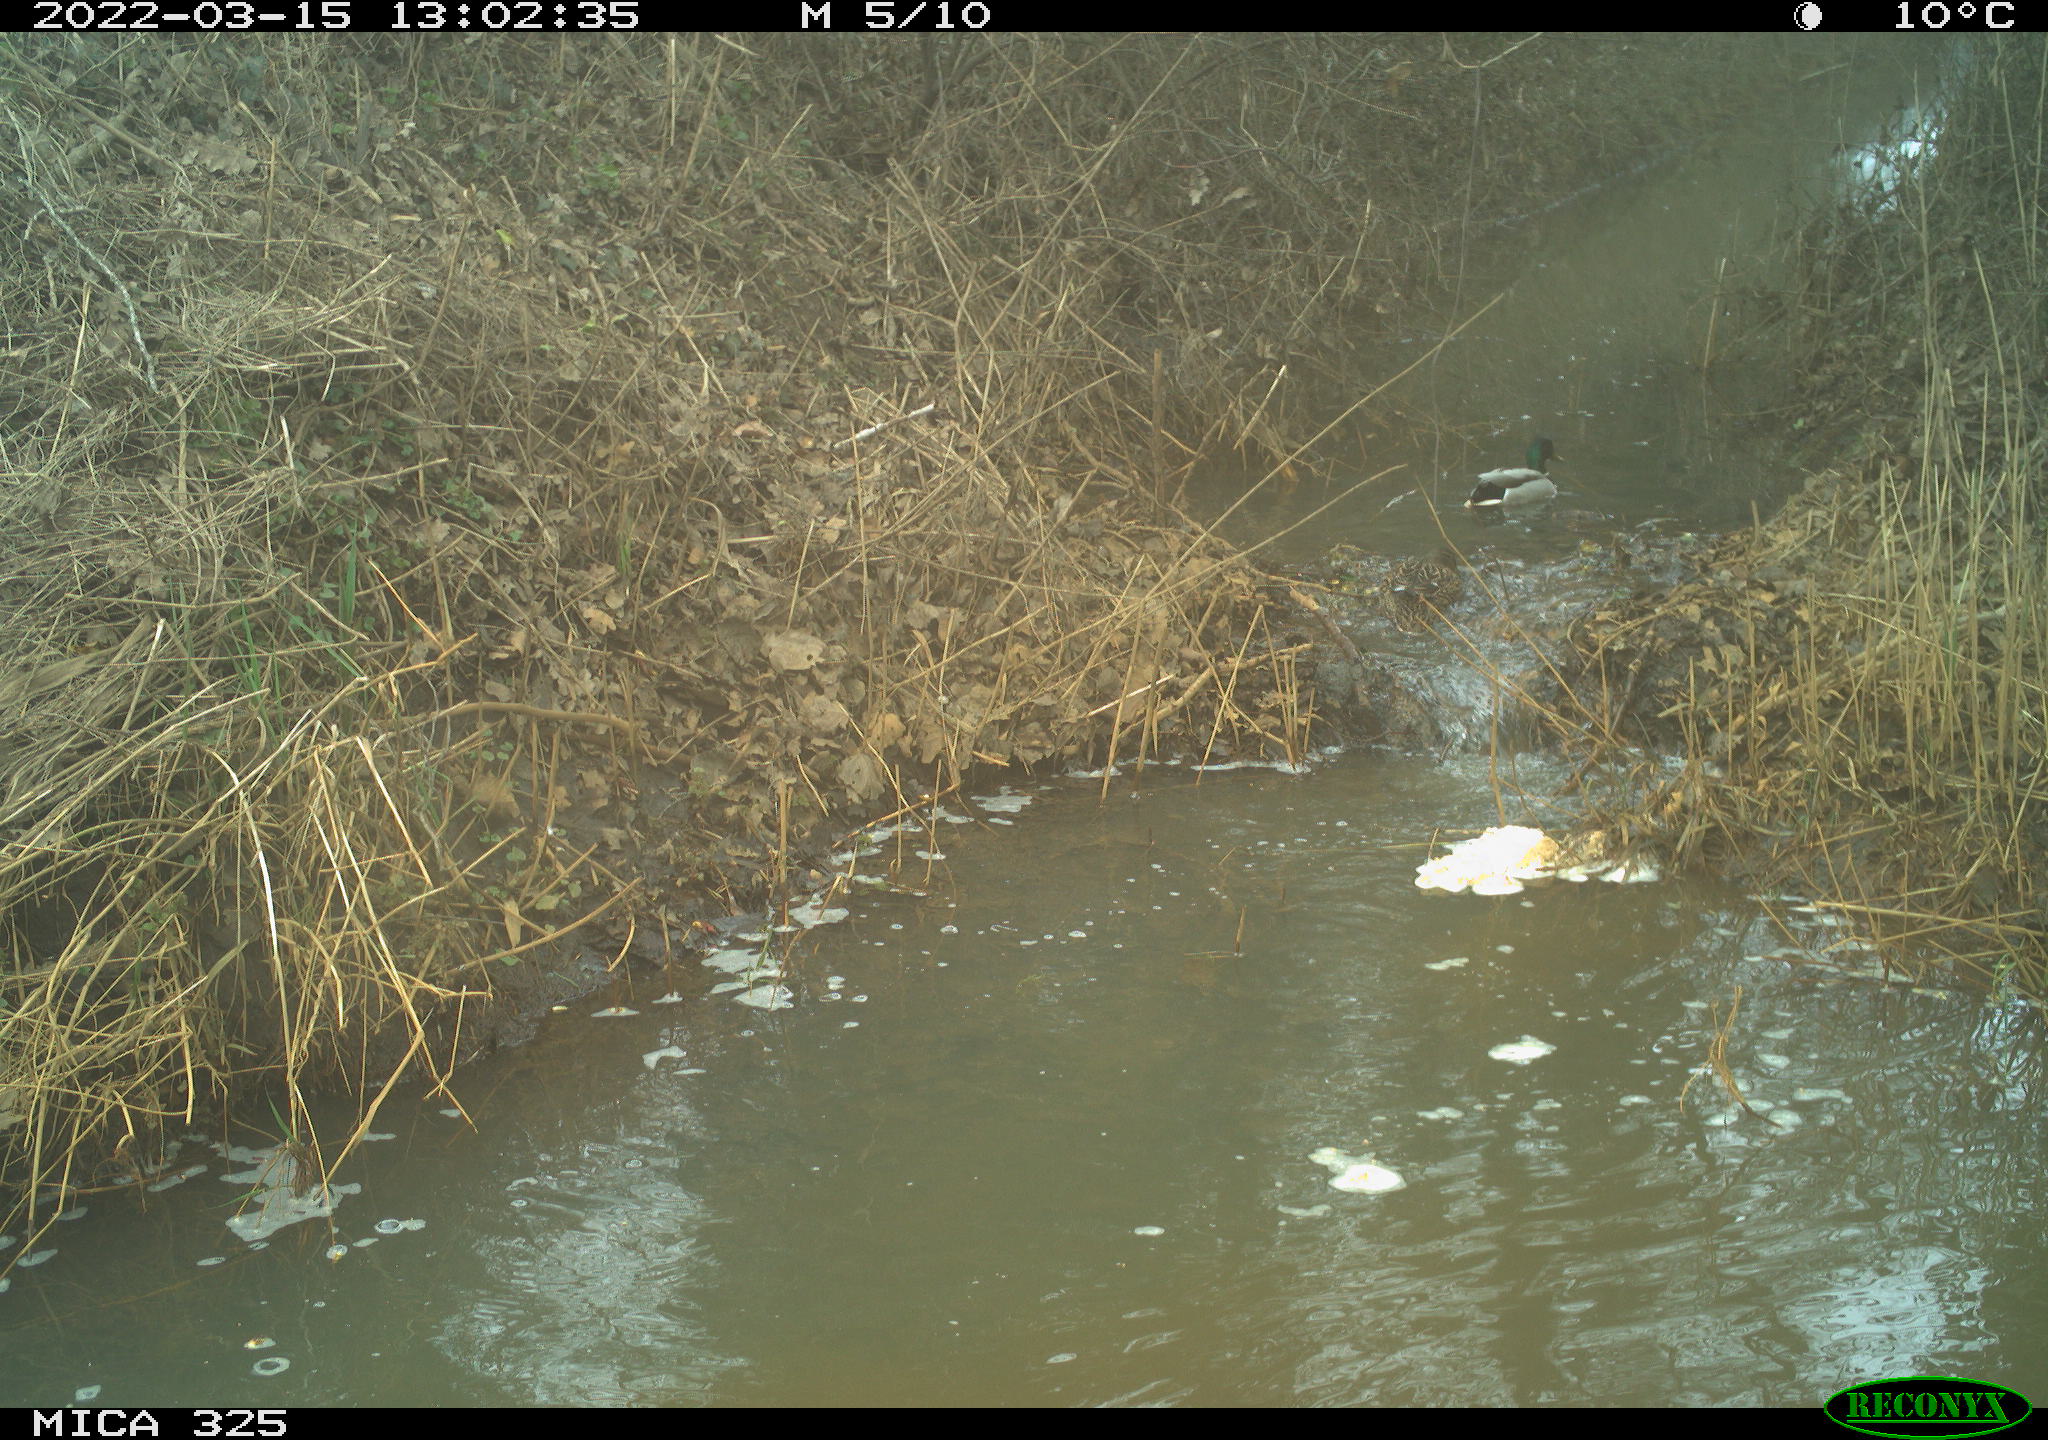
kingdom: Animalia
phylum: Chordata
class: Aves
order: Anseriformes
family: Anatidae
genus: Anas
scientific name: Anas platyrhynchos
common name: Mallard
